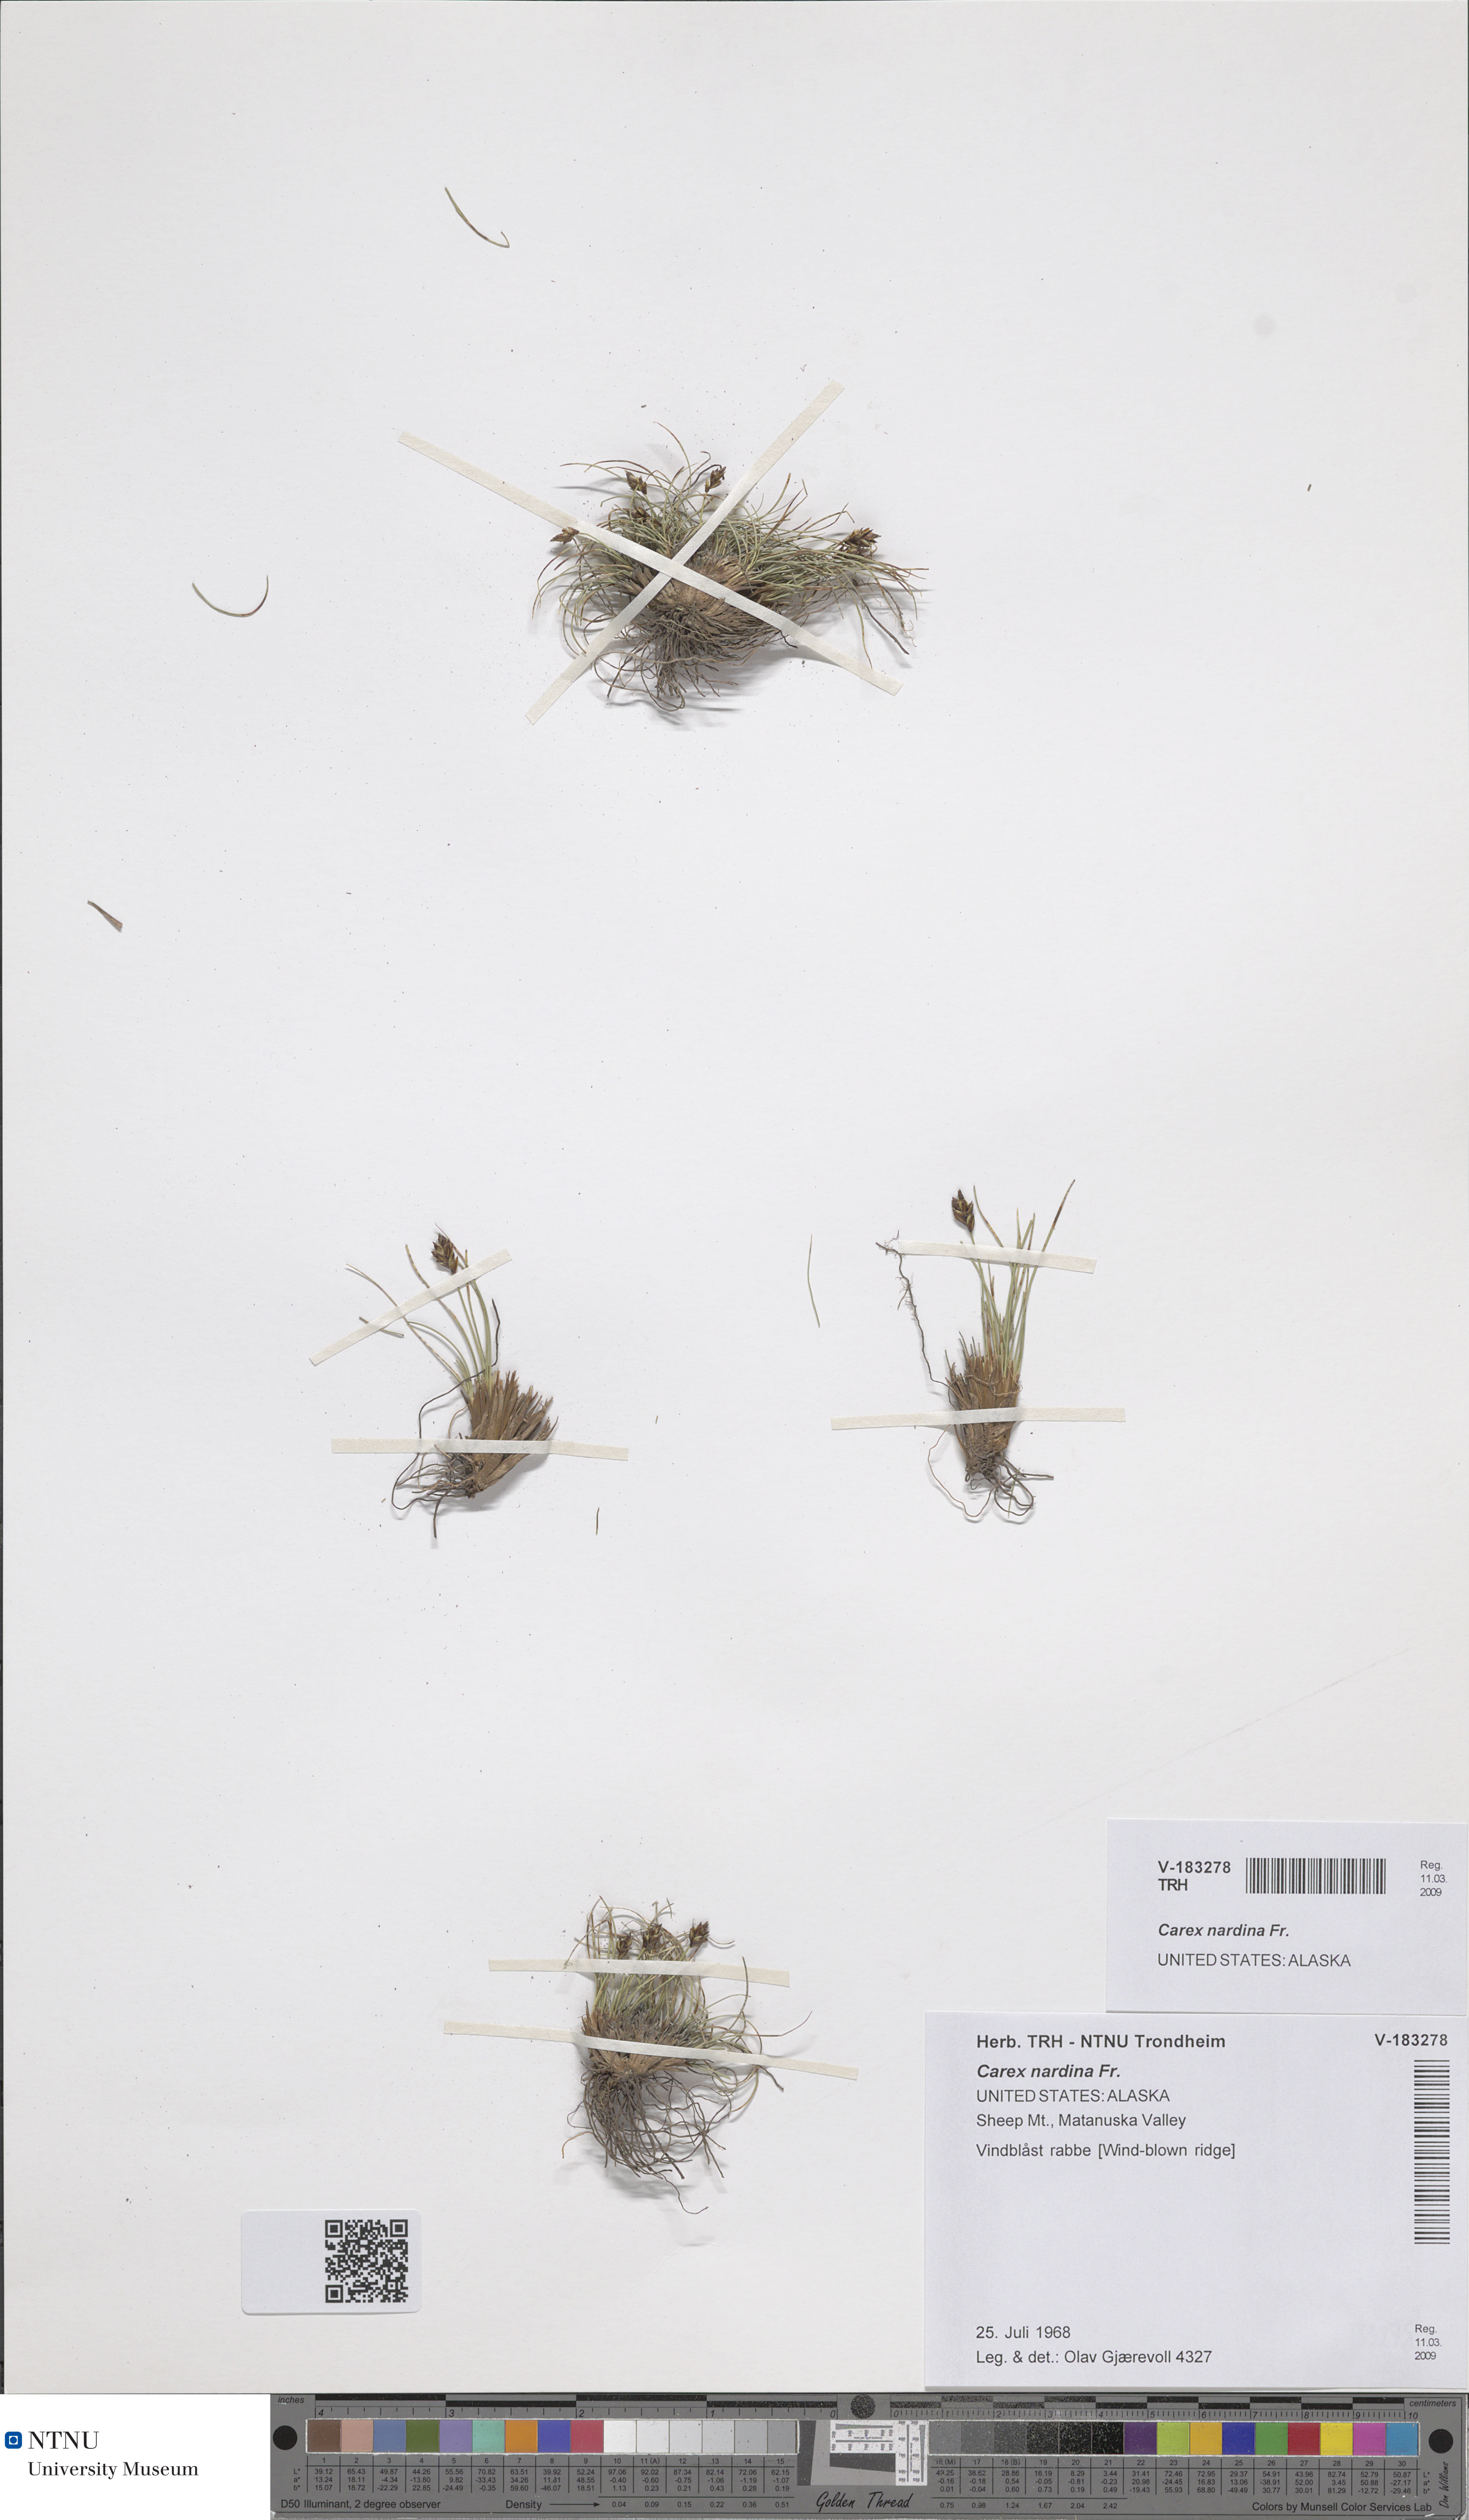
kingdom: Plantae
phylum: Tracheophyta
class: Liliopsida
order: Poales
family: Cyperaceae
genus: Carex
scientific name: Carex nardina
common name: Nard sedge
